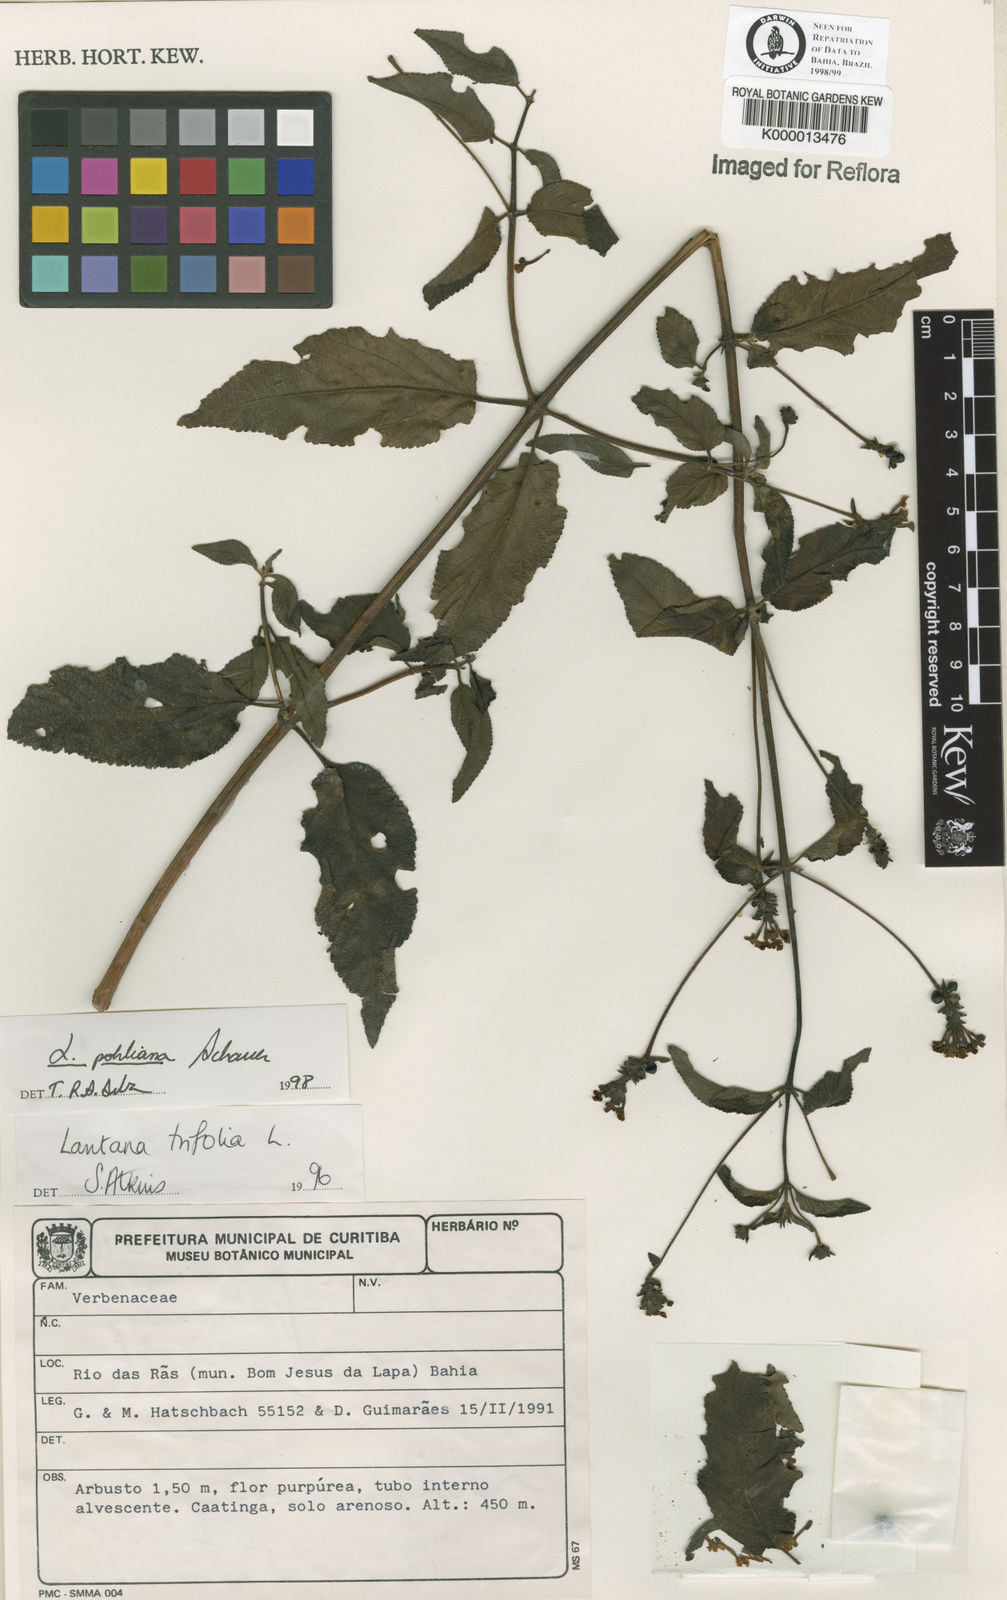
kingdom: Plantae
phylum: Tracheophyta
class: Magnoliopsida
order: Lamiales
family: Verbenaceae
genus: Lantana
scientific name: Lantana pohliana
